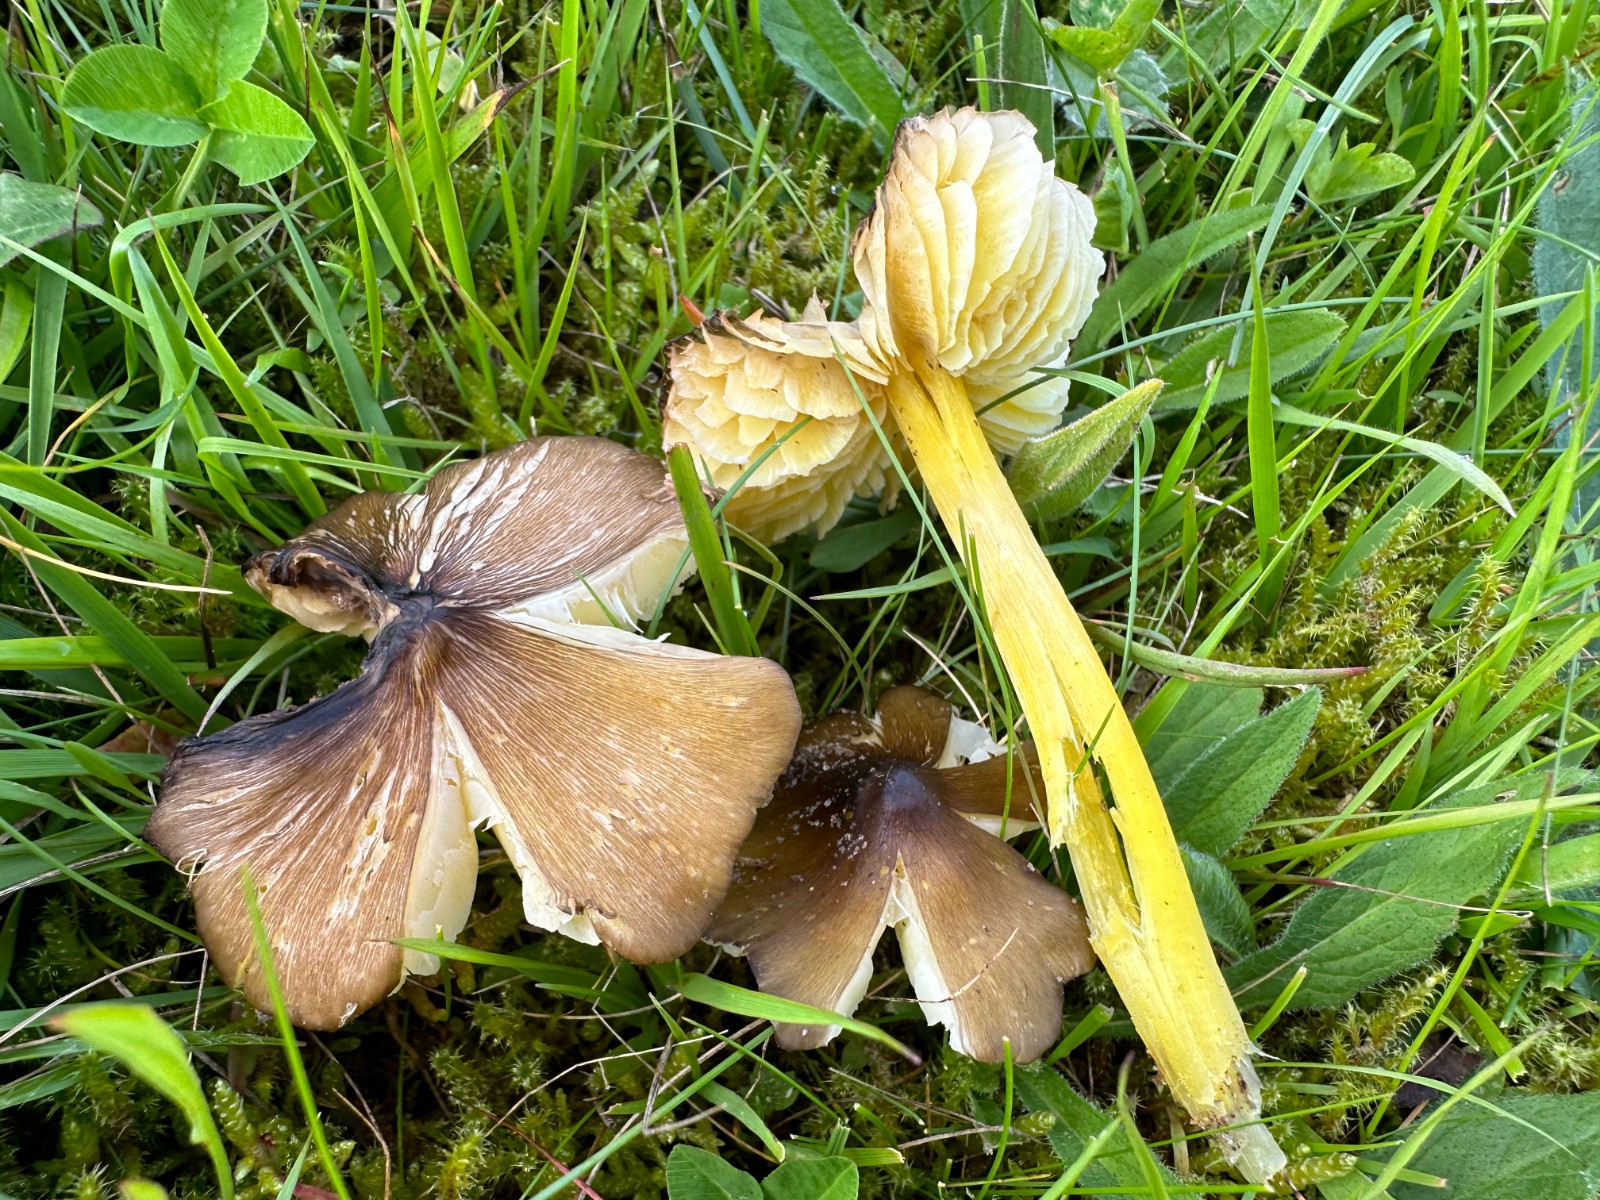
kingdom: Fungi
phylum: Basidiomycota
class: Agaricomycetes
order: Agaricales
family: Hygrophoraceae
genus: Hygrocybe
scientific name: Hygrocybe spadicea
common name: daddelbrun vokshat
